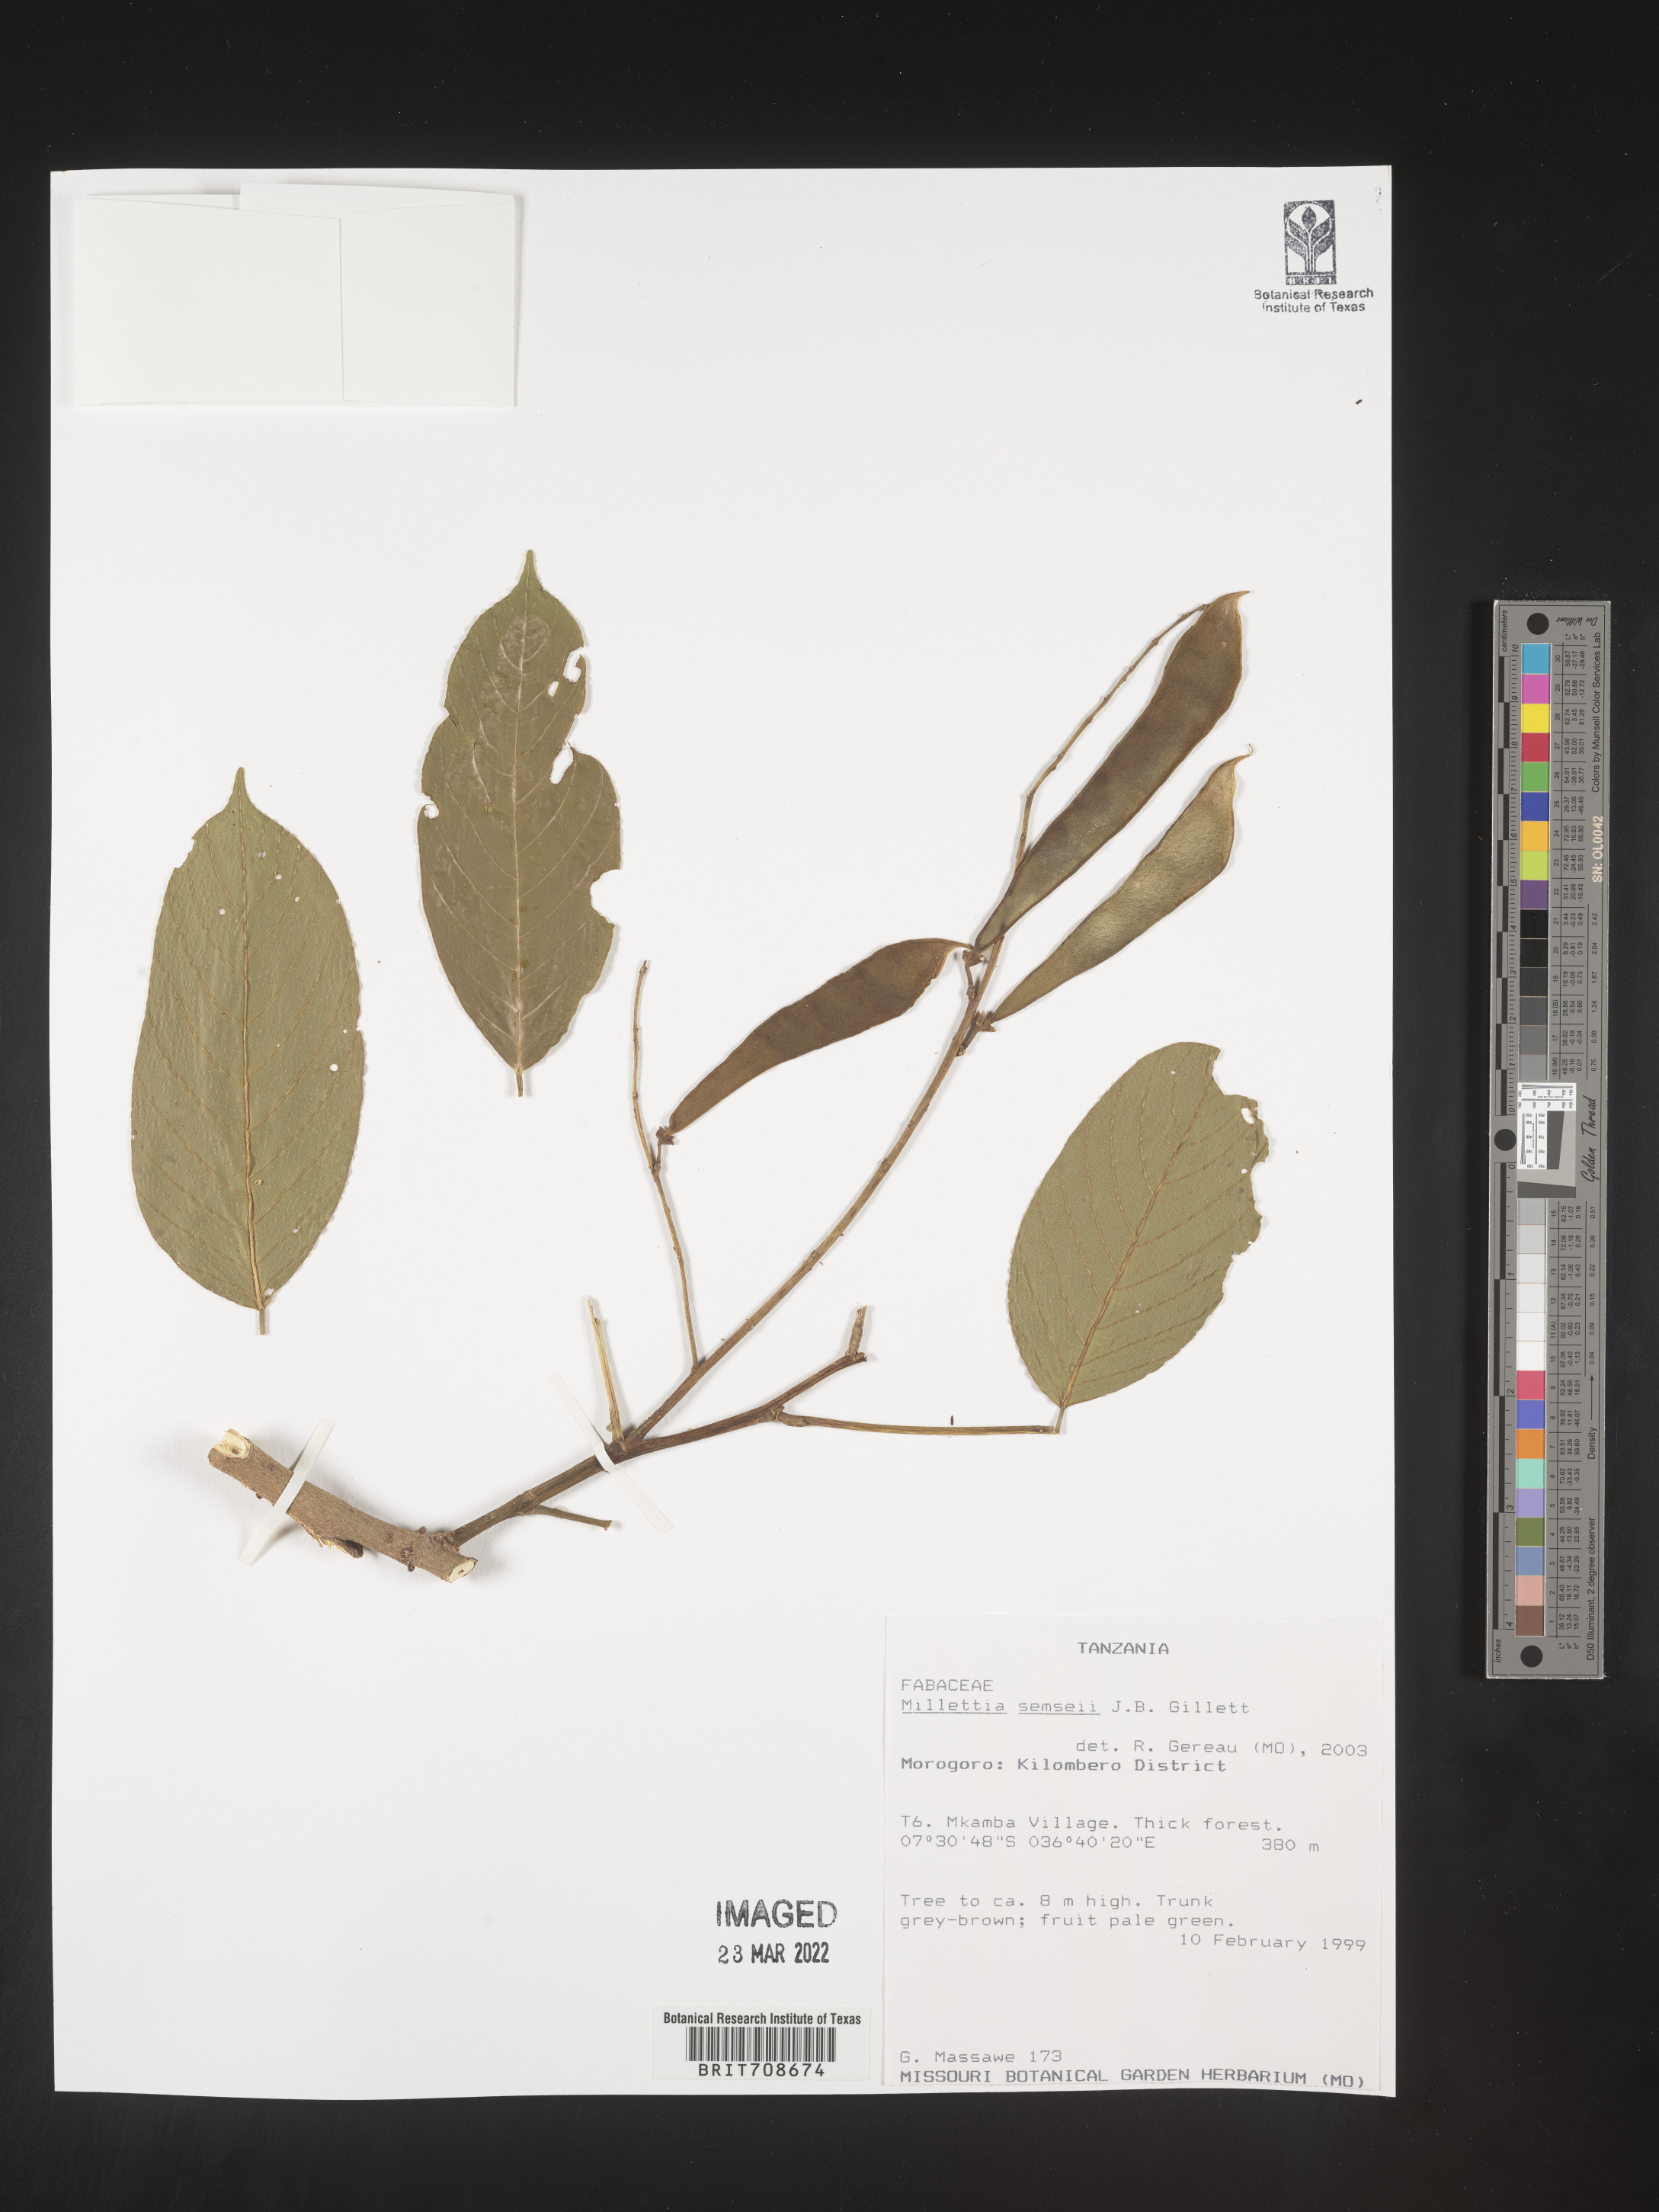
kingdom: Plantae
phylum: Tracheophyta
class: Magnoliopsida
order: Fabales
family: Fabaceae
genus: Millettia
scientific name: Millettia
